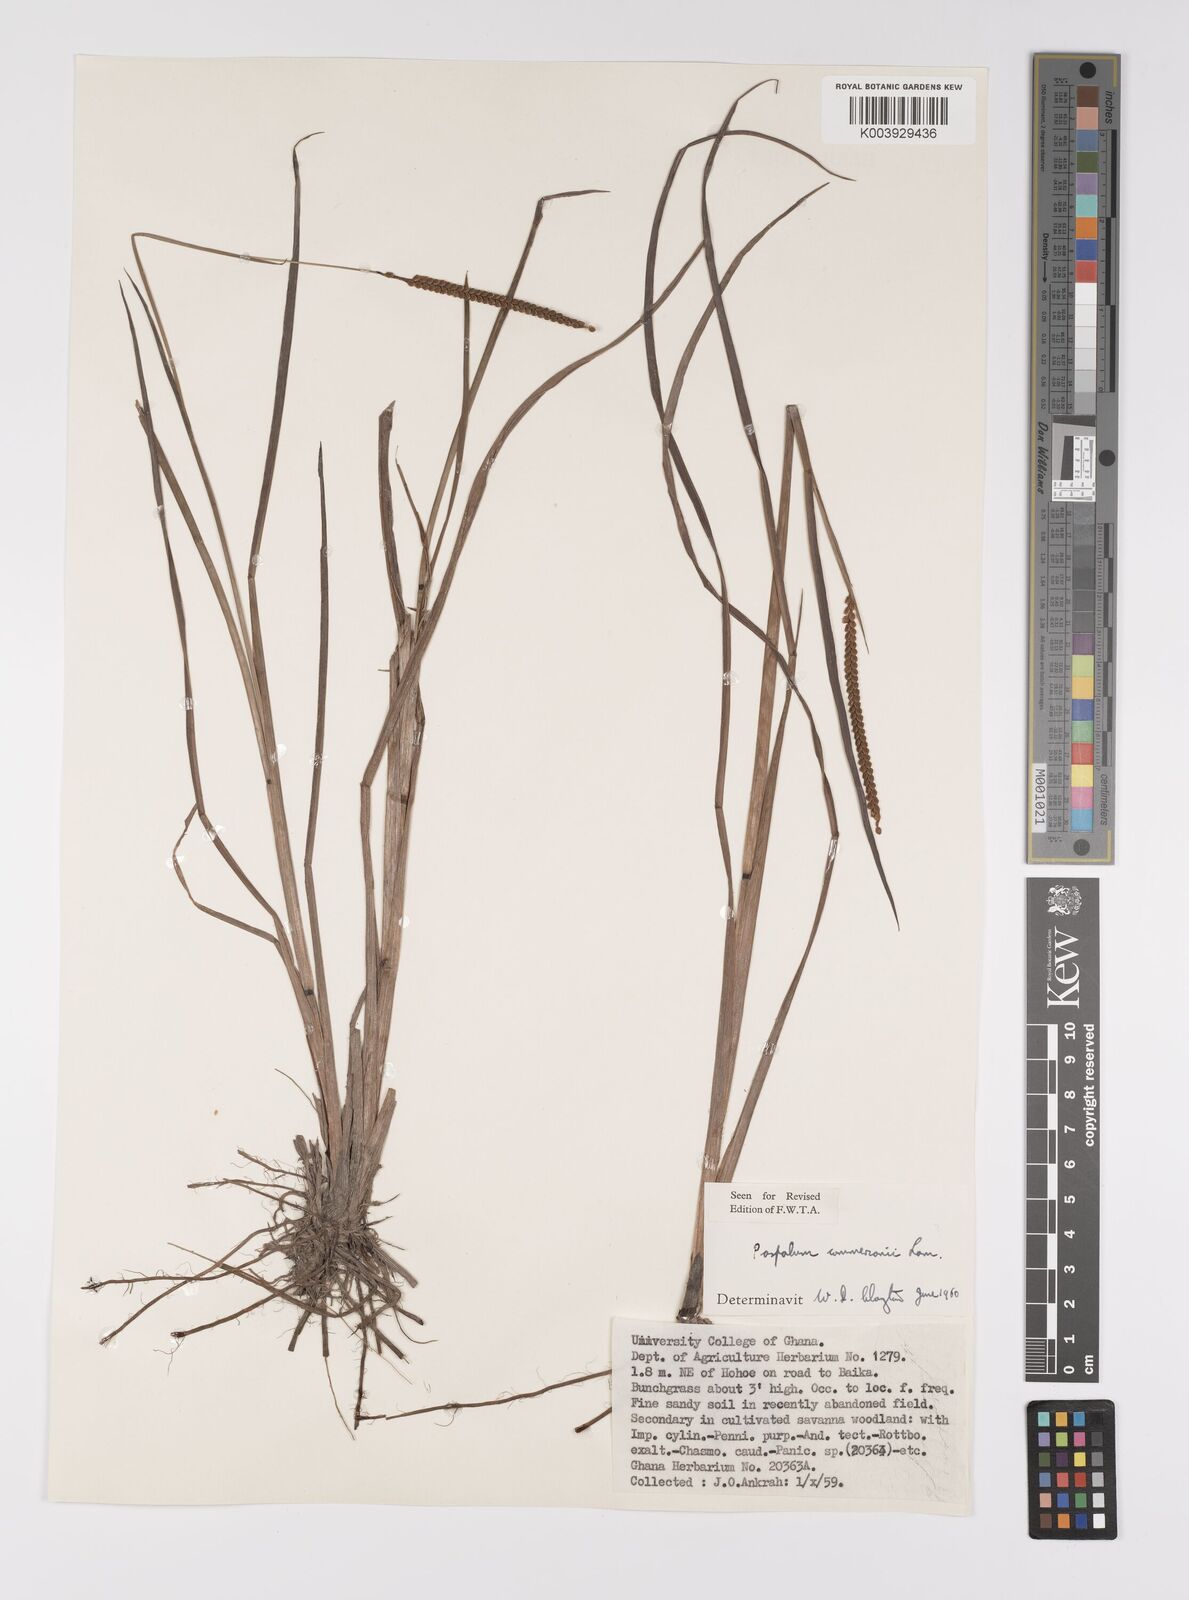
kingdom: Plantae
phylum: Tracheophyta
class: Liliopsida
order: Poales
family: Poaceae
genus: Paspalum
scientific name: Paspalum scrobiculatum
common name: Kodo millet
